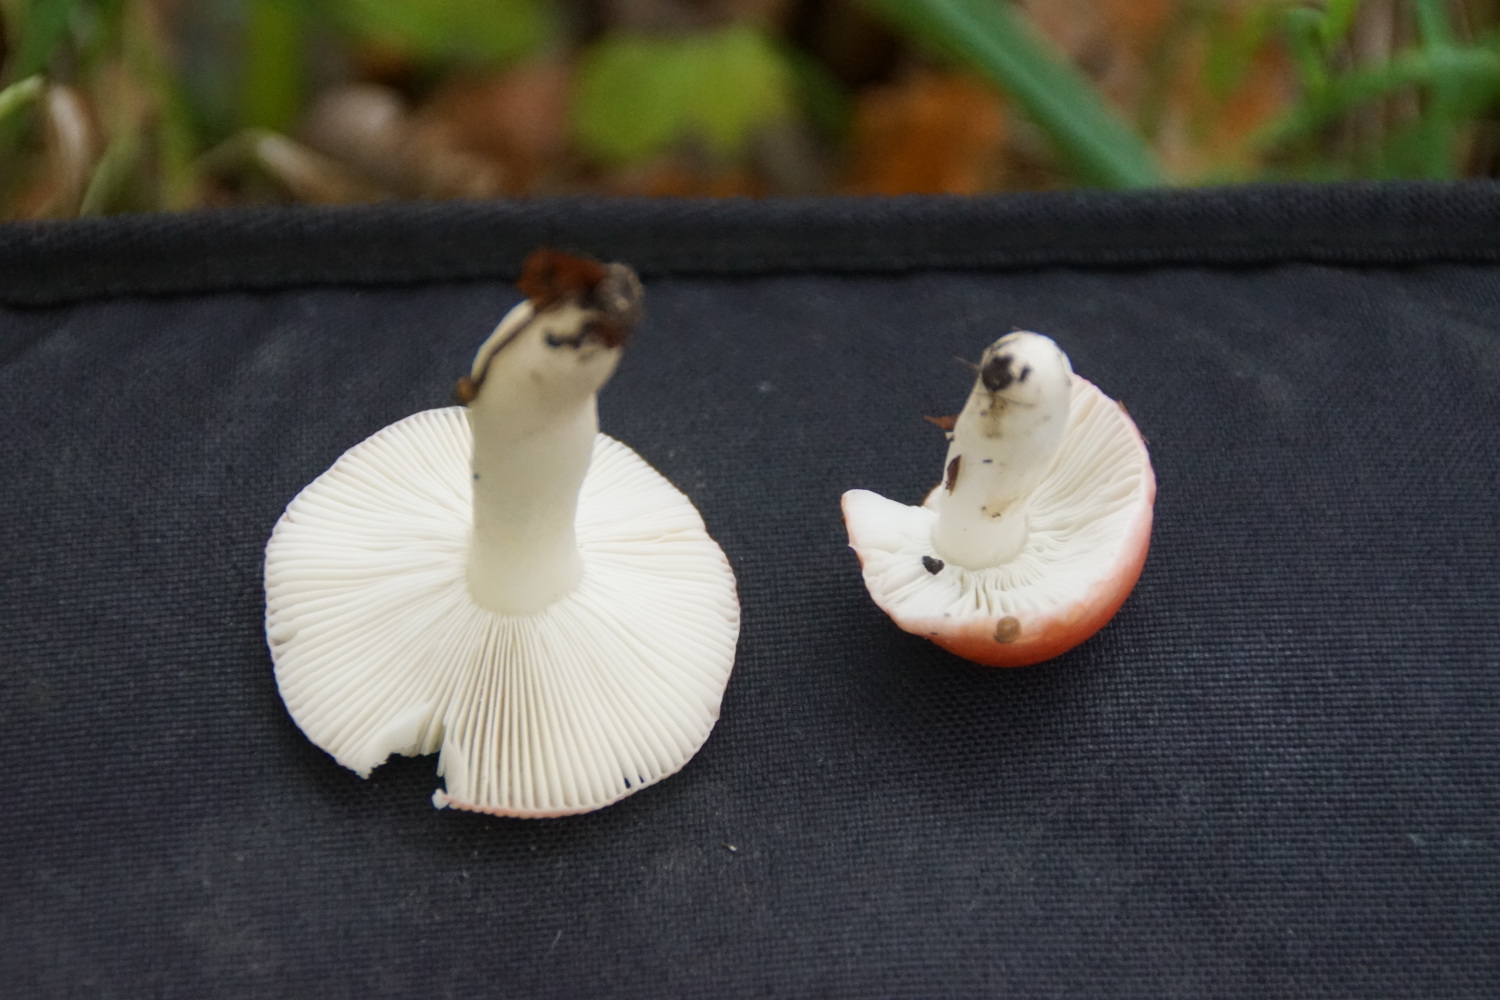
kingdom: Fungi
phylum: Basidiomycota
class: Agaricomycetes
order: Russulales
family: Russulaceae
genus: Russula
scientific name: Russula
